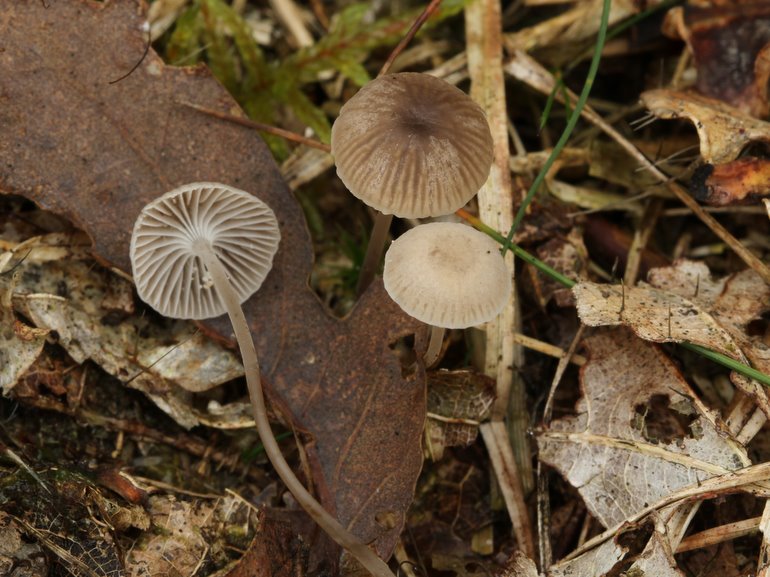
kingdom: Fungi
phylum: Basidiomycota
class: Agaricomycetes
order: Agaricales
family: Mycenaceae
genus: Mycena
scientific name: Mycena cinerella
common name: mel-huesvamp
